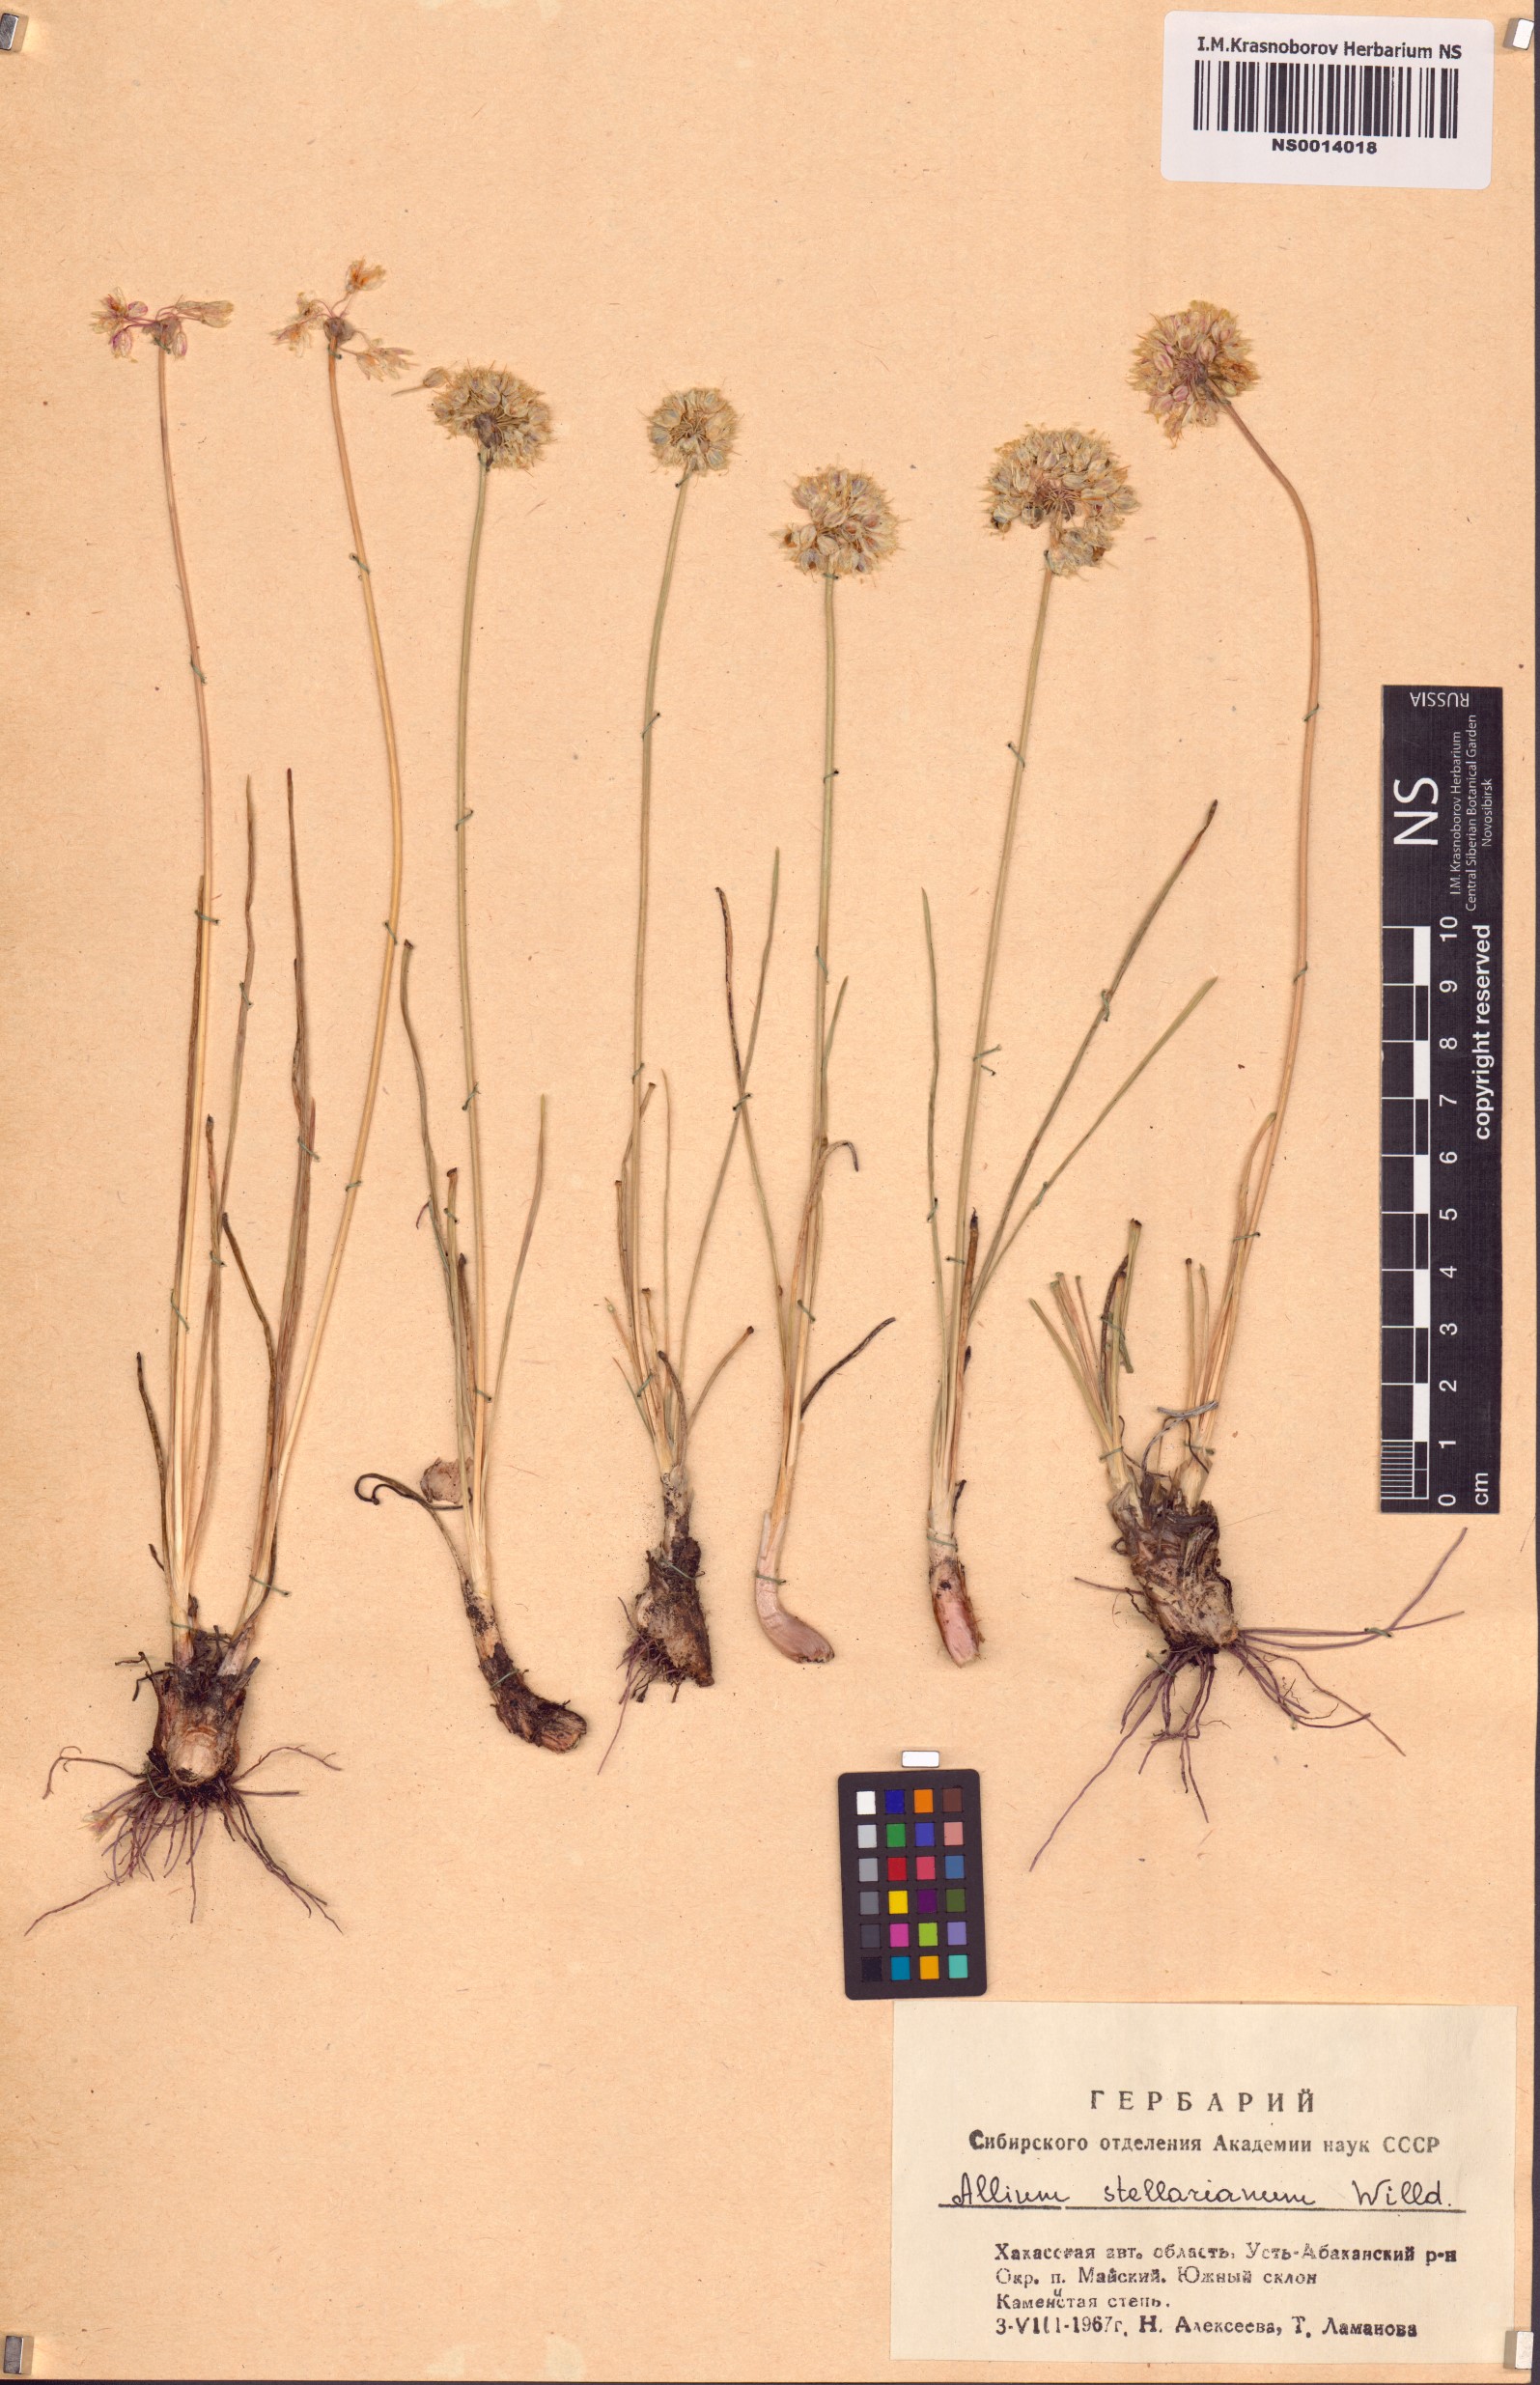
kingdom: Plantae
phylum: Tracheophyta
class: Liliopsida
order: Asparagales
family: Amaryllidaceae
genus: Allium
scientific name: Allium stellerianum
